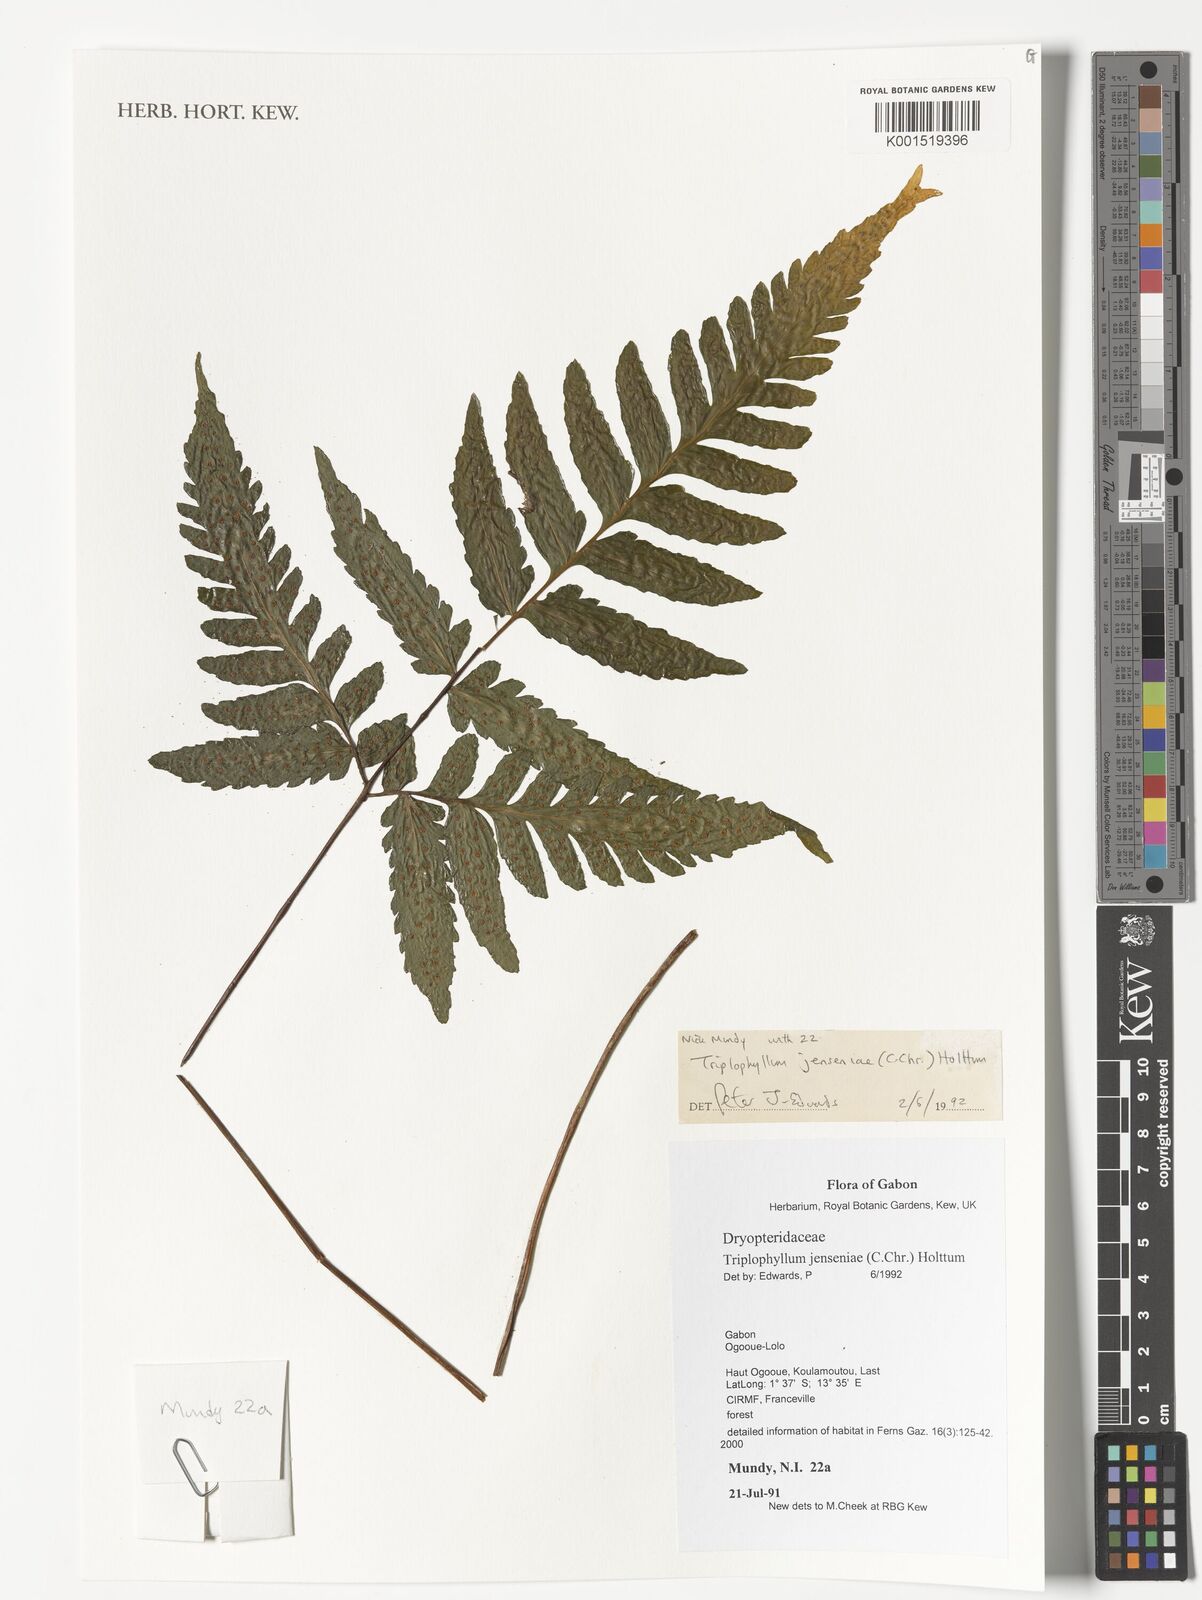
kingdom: Plantae
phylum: Tracheophyta
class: Polypodiopsida
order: Polypodiales
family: Tectariaceae
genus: Triplophyllum
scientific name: Triplophyllum jenseniae
